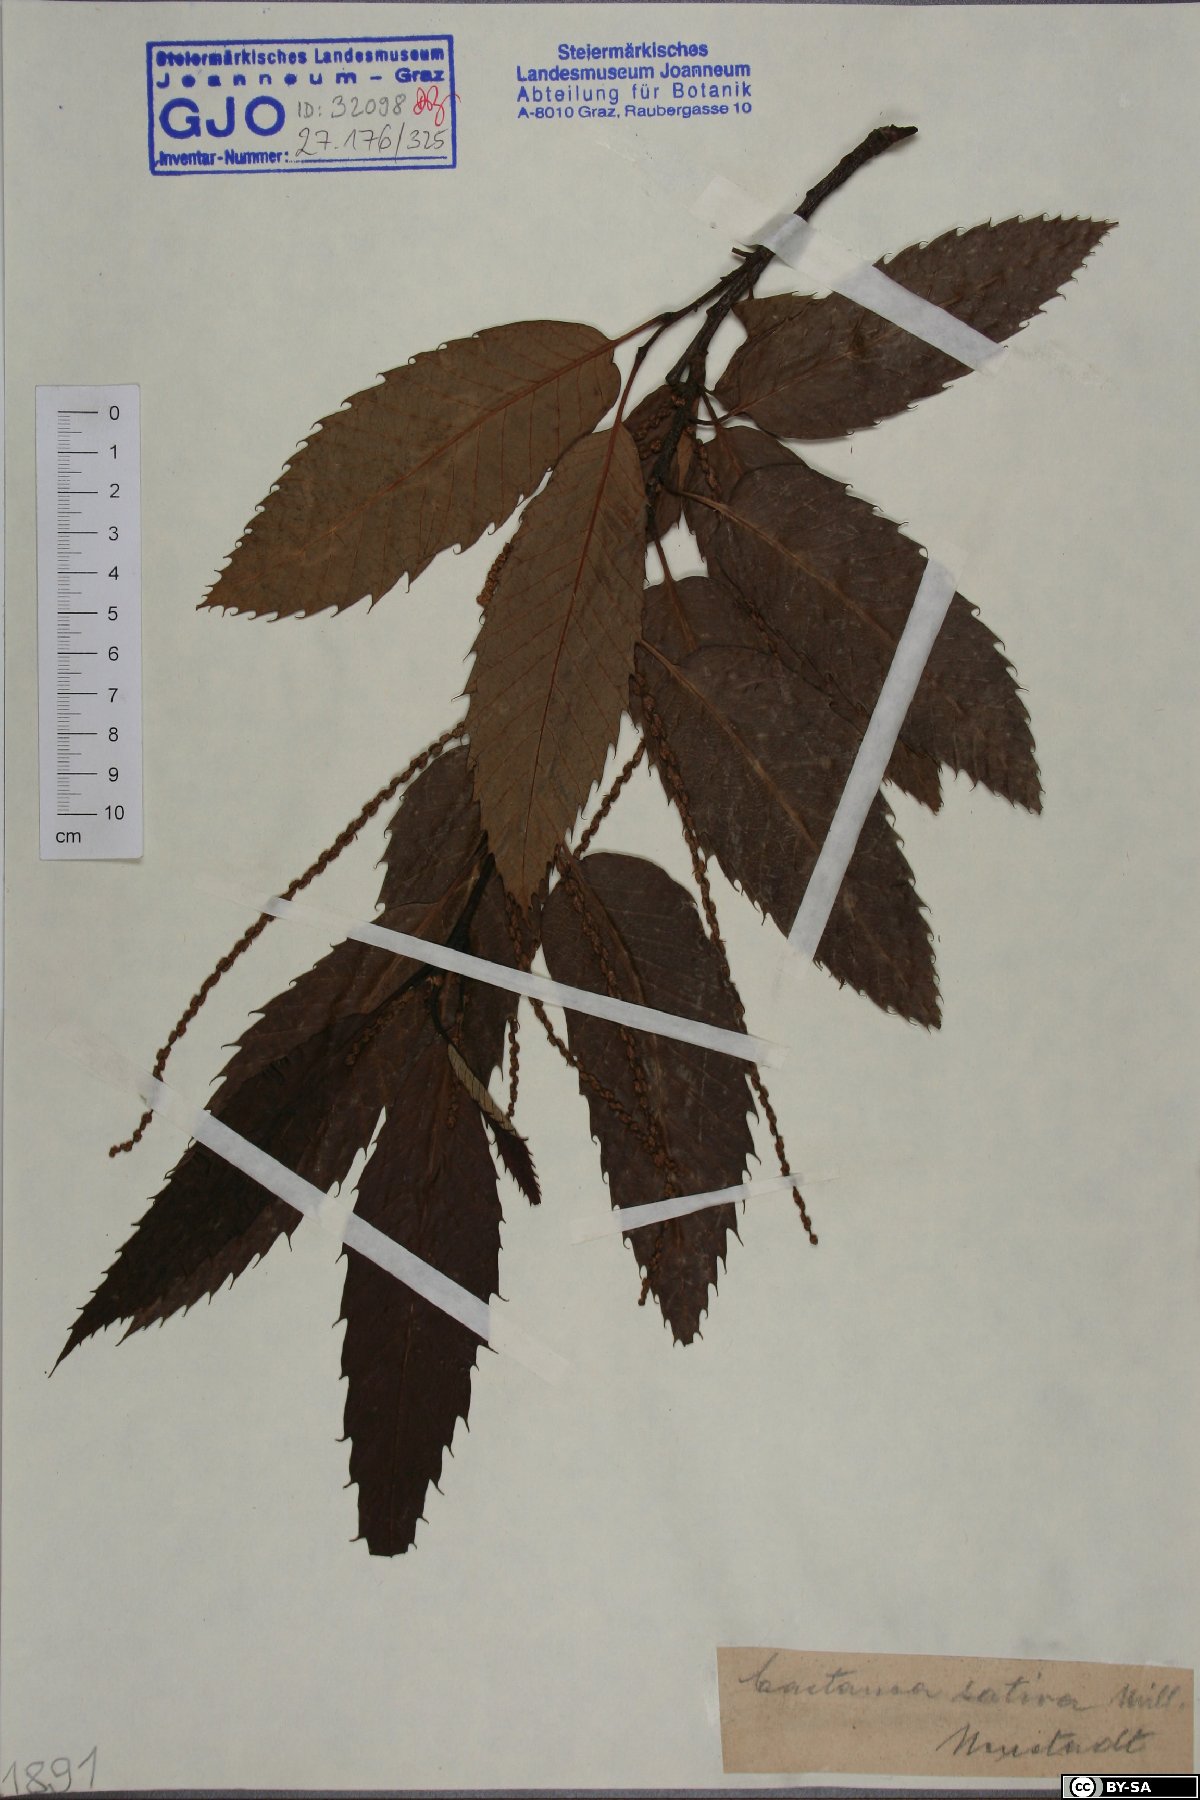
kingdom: Plantae
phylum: Tracheophyta
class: Magnoliopsida
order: Fagales
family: Fagaceae
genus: Castanea
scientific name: Castanea sativa
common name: Sweet chestnut
